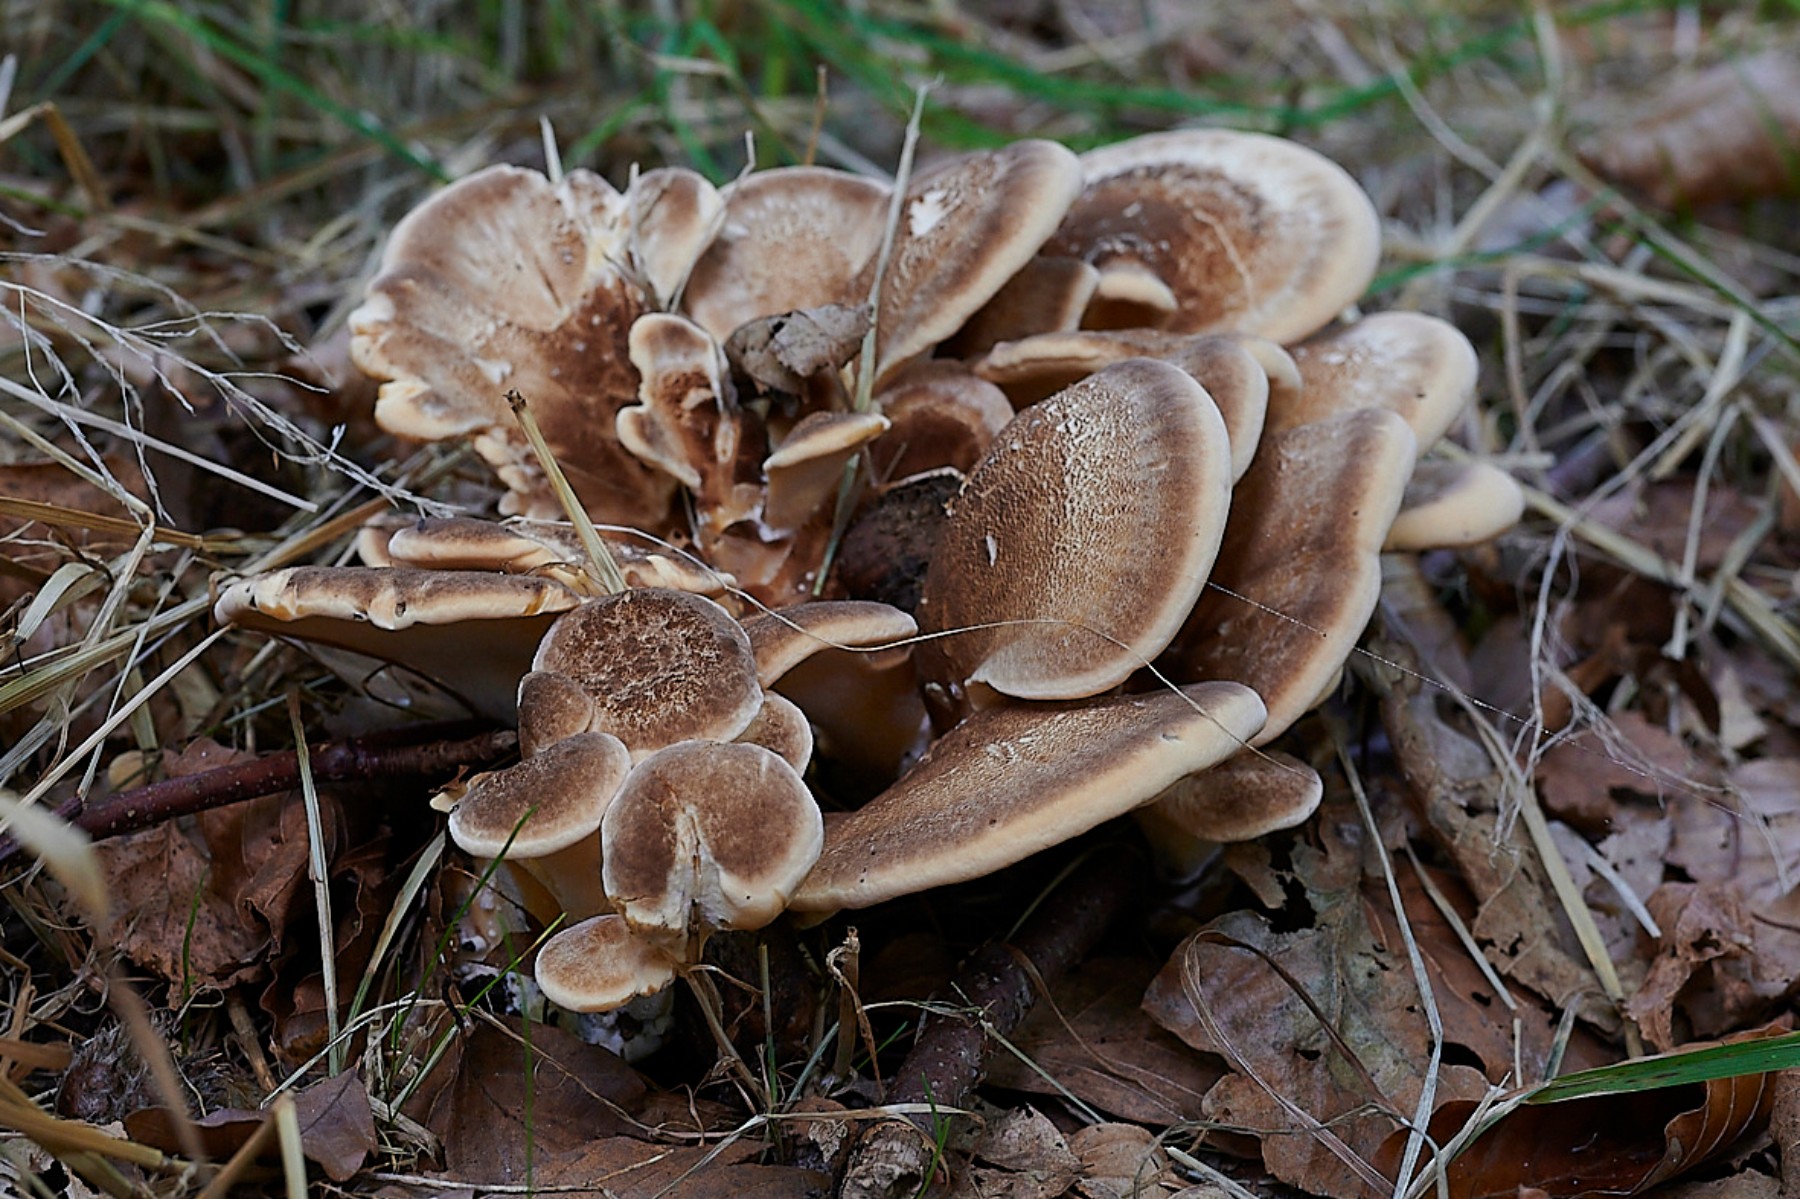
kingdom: Fungi
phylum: Basidiomycota
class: Agaricomycetes
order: Polyporales
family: Meripilaceae
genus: Meripilus
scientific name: Meripilus giganteus
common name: kæmpeporesvamp
